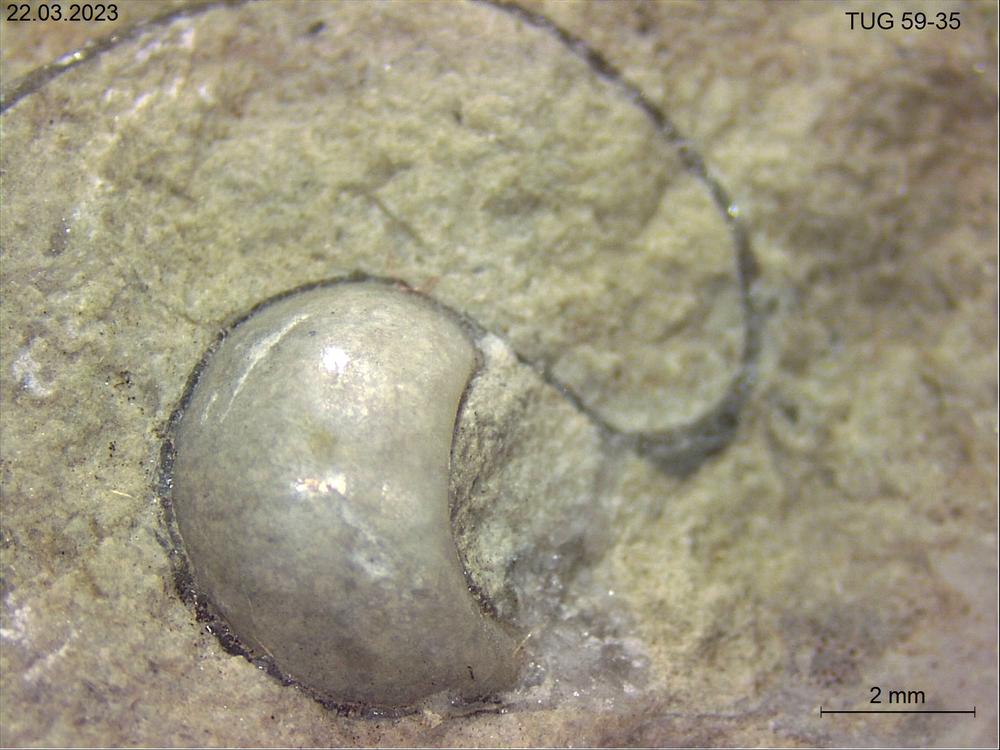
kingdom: Animalia
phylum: Mollusca
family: Bucanellidae
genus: Bucanella
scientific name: Bucanella
